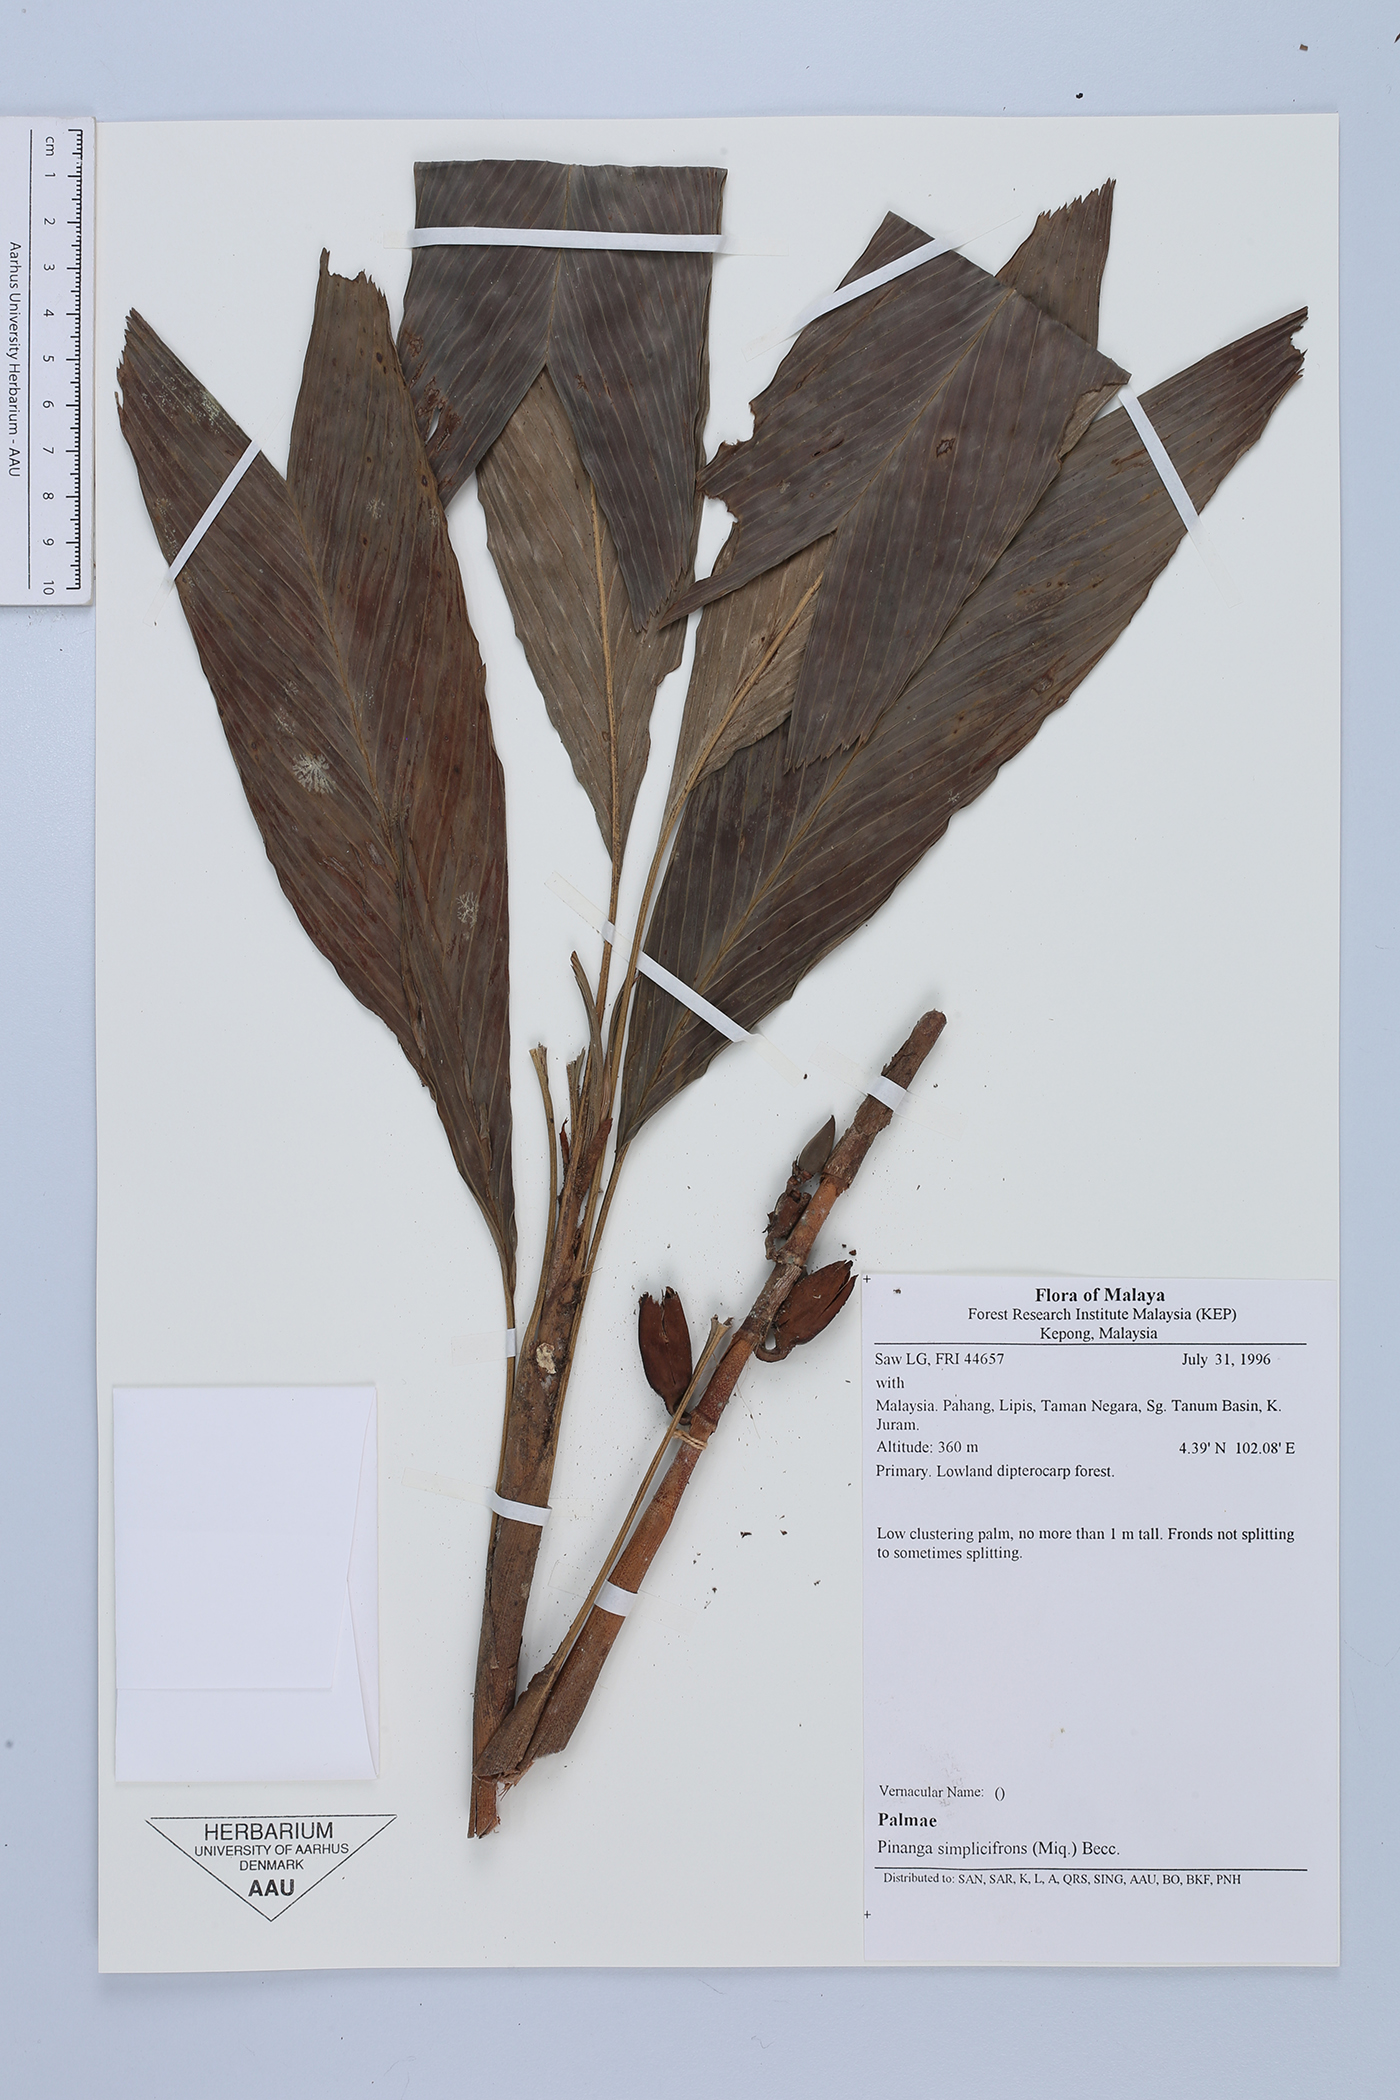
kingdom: Plantae
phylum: Tracheophyta
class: Liliopsida
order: Arecales
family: Arecaceae
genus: Pinanga
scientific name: Pinanga simplicifrons
